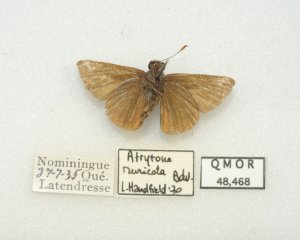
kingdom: Animalia
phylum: Arthropoda
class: Insecta
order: Lepidoptera
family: Hesperiidae
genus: Euphyes
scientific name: Euphyes vestris
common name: Dun Skipper
